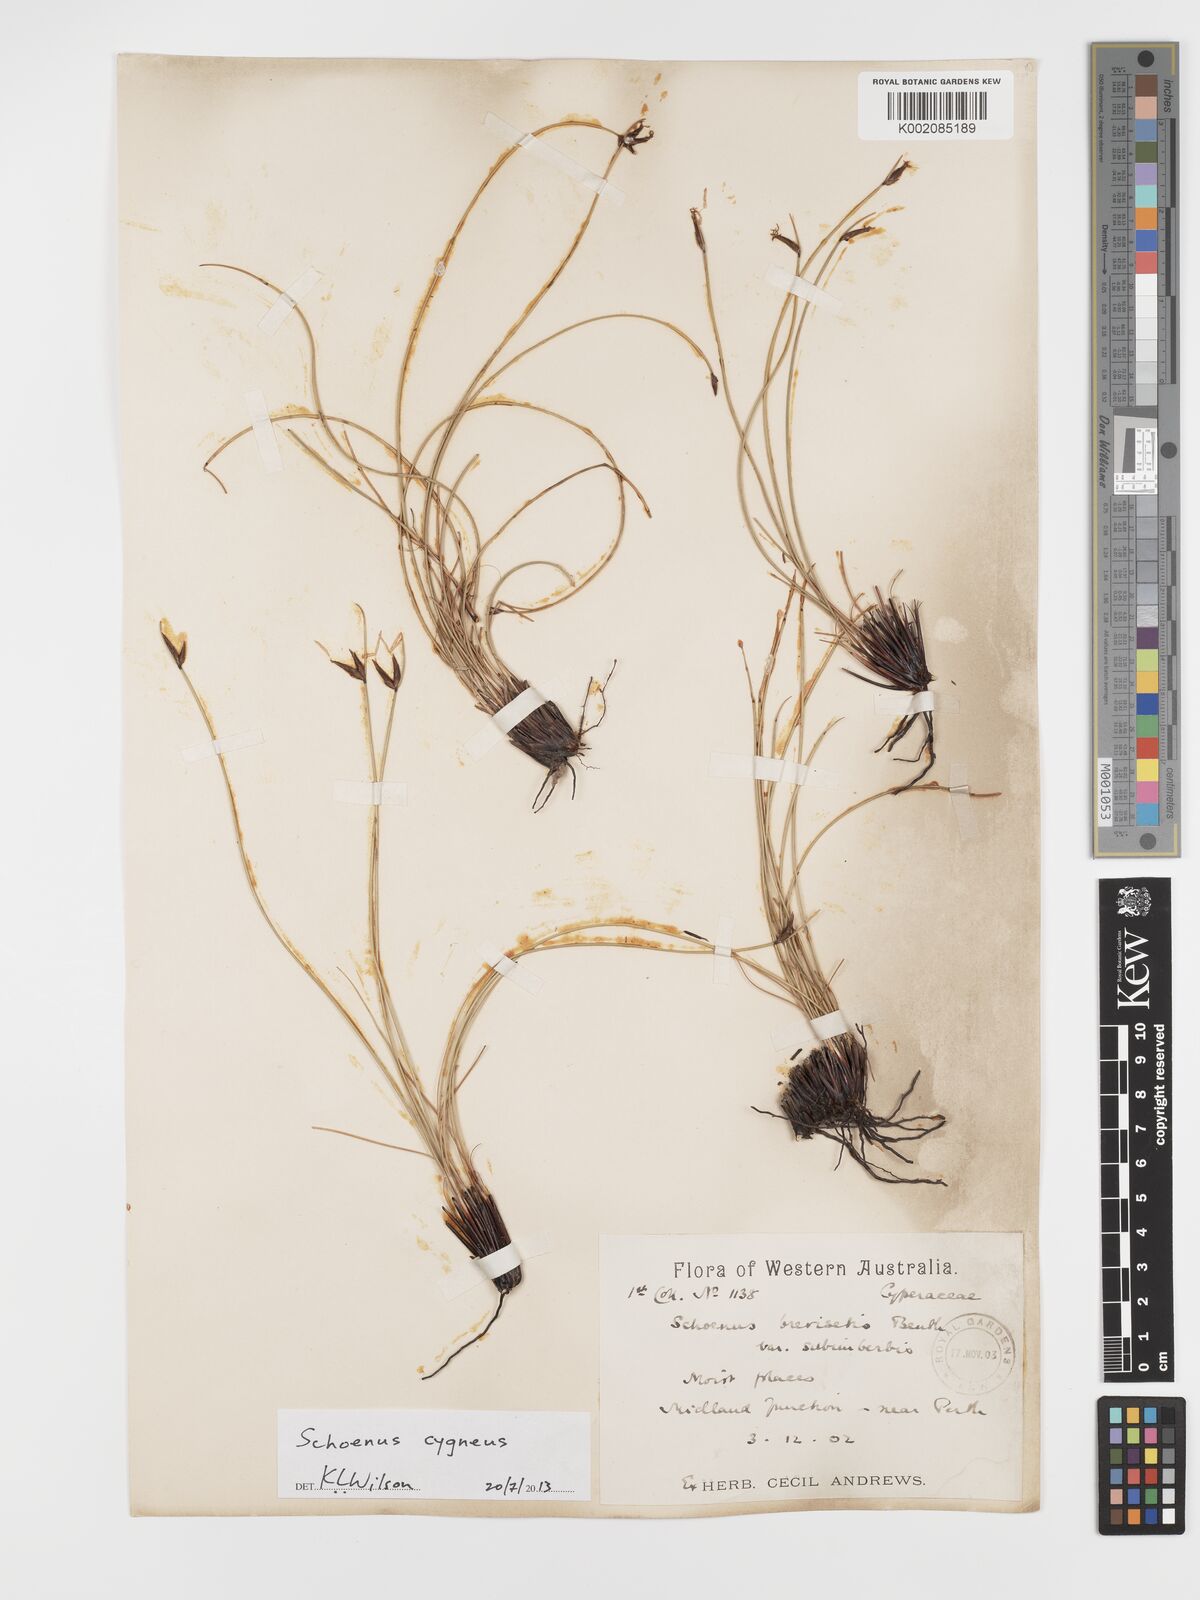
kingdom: Plantae
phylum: Tracheophyta
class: Liliopsida
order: Poales
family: Cyperaceae
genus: Schoenus
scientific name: Schoenus cygneus
